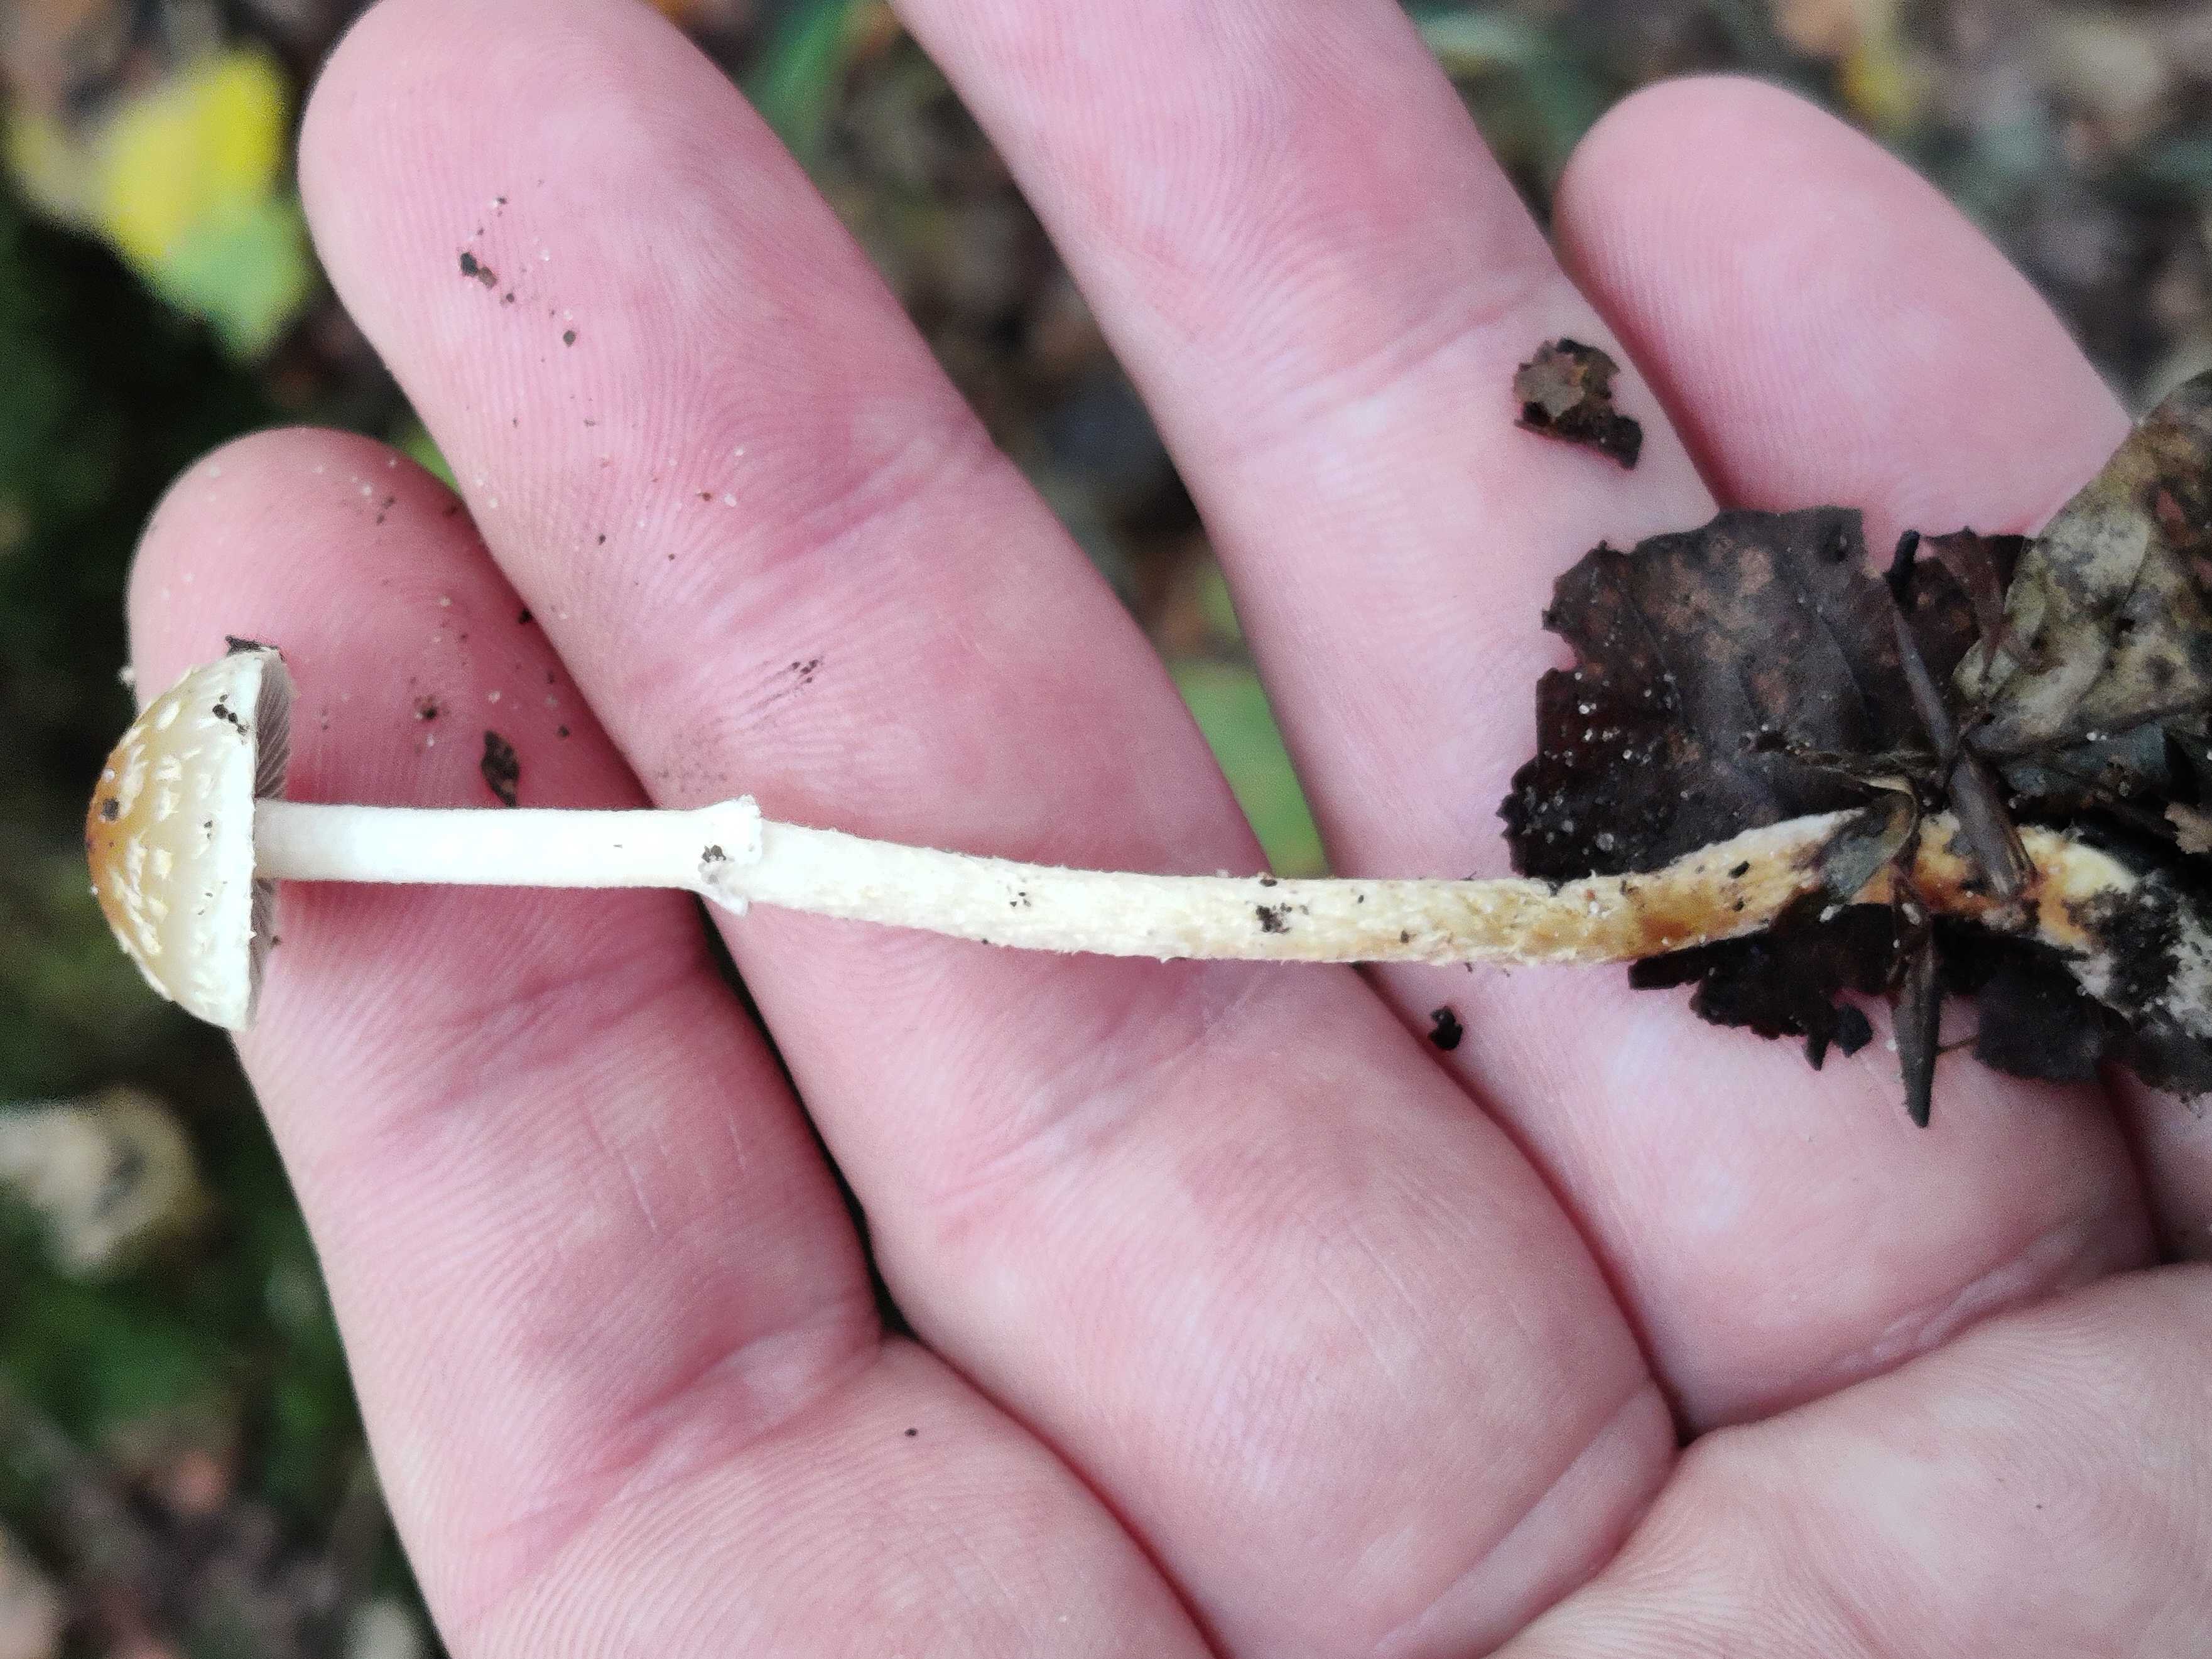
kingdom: Fungi
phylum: Basidiomycota
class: Agaricomycetes
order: Agaricales
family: Strophariaceae
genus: Leratiomyces
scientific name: Leratiomyces squamosus
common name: skællet bredblad
